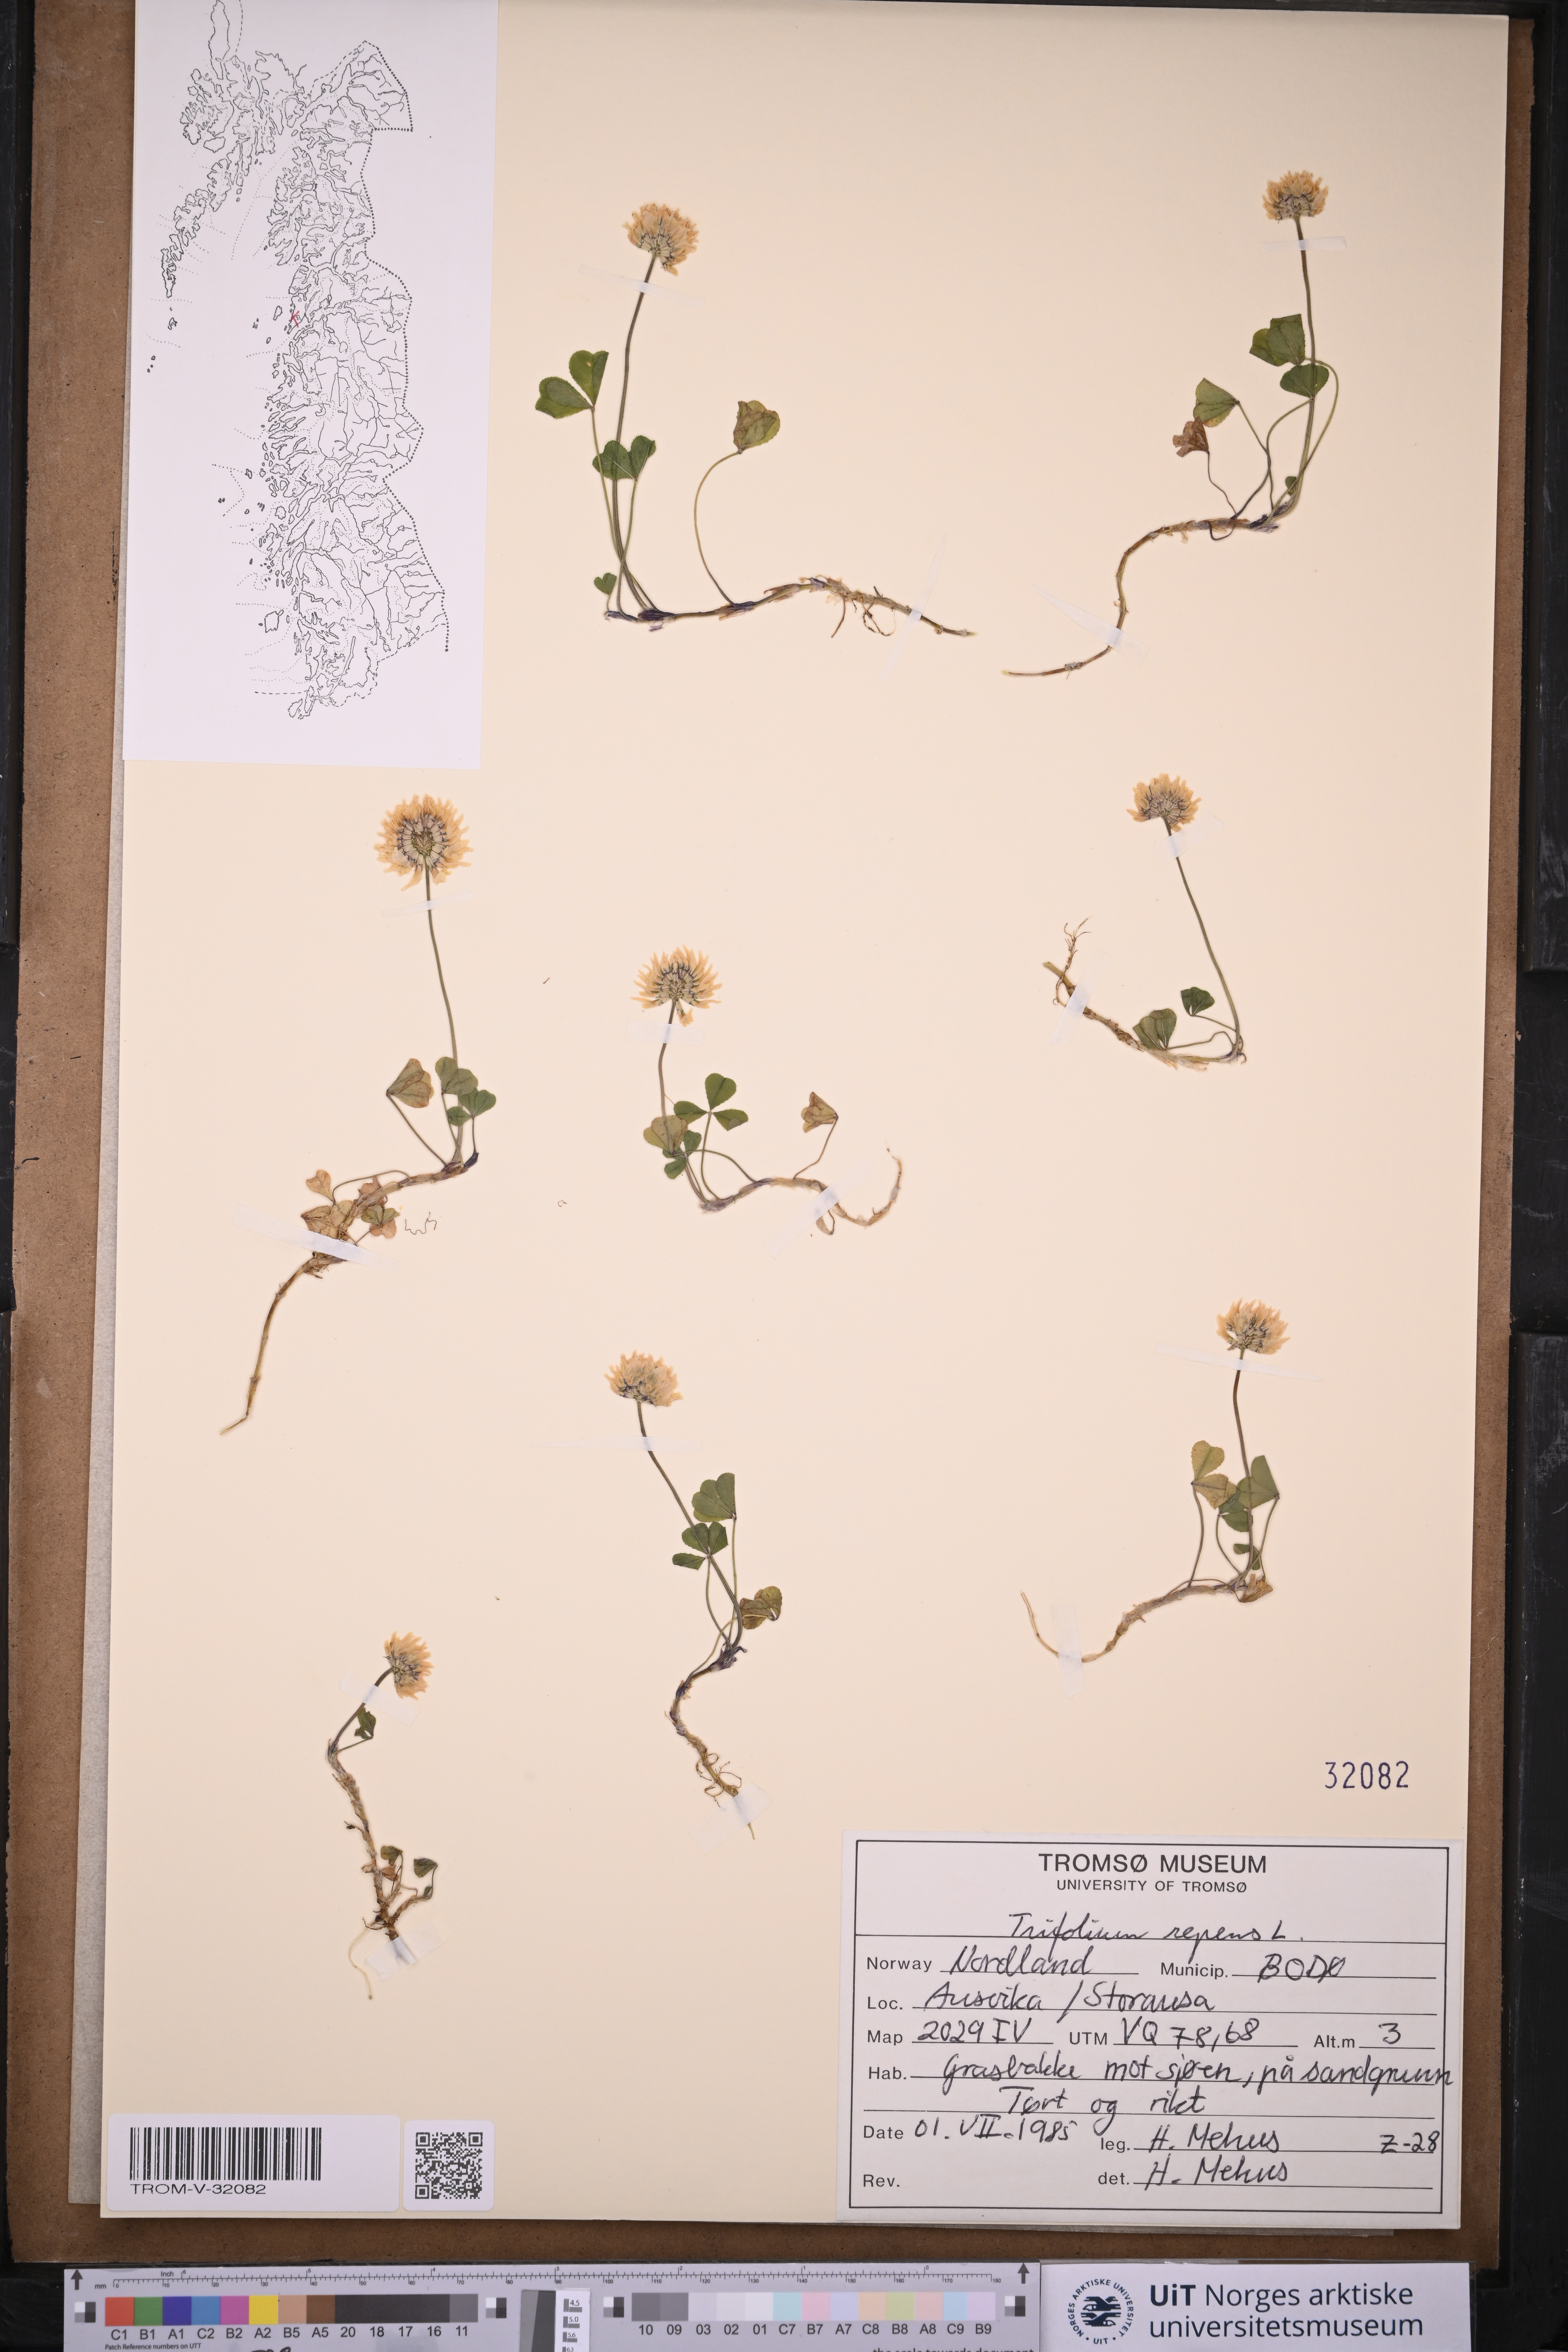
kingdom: Plantae
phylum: Tracheophyta
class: Magnoliopsida
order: Fabales
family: Fabaceae
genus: Trifolium
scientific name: Trifolium repens
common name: White clover
